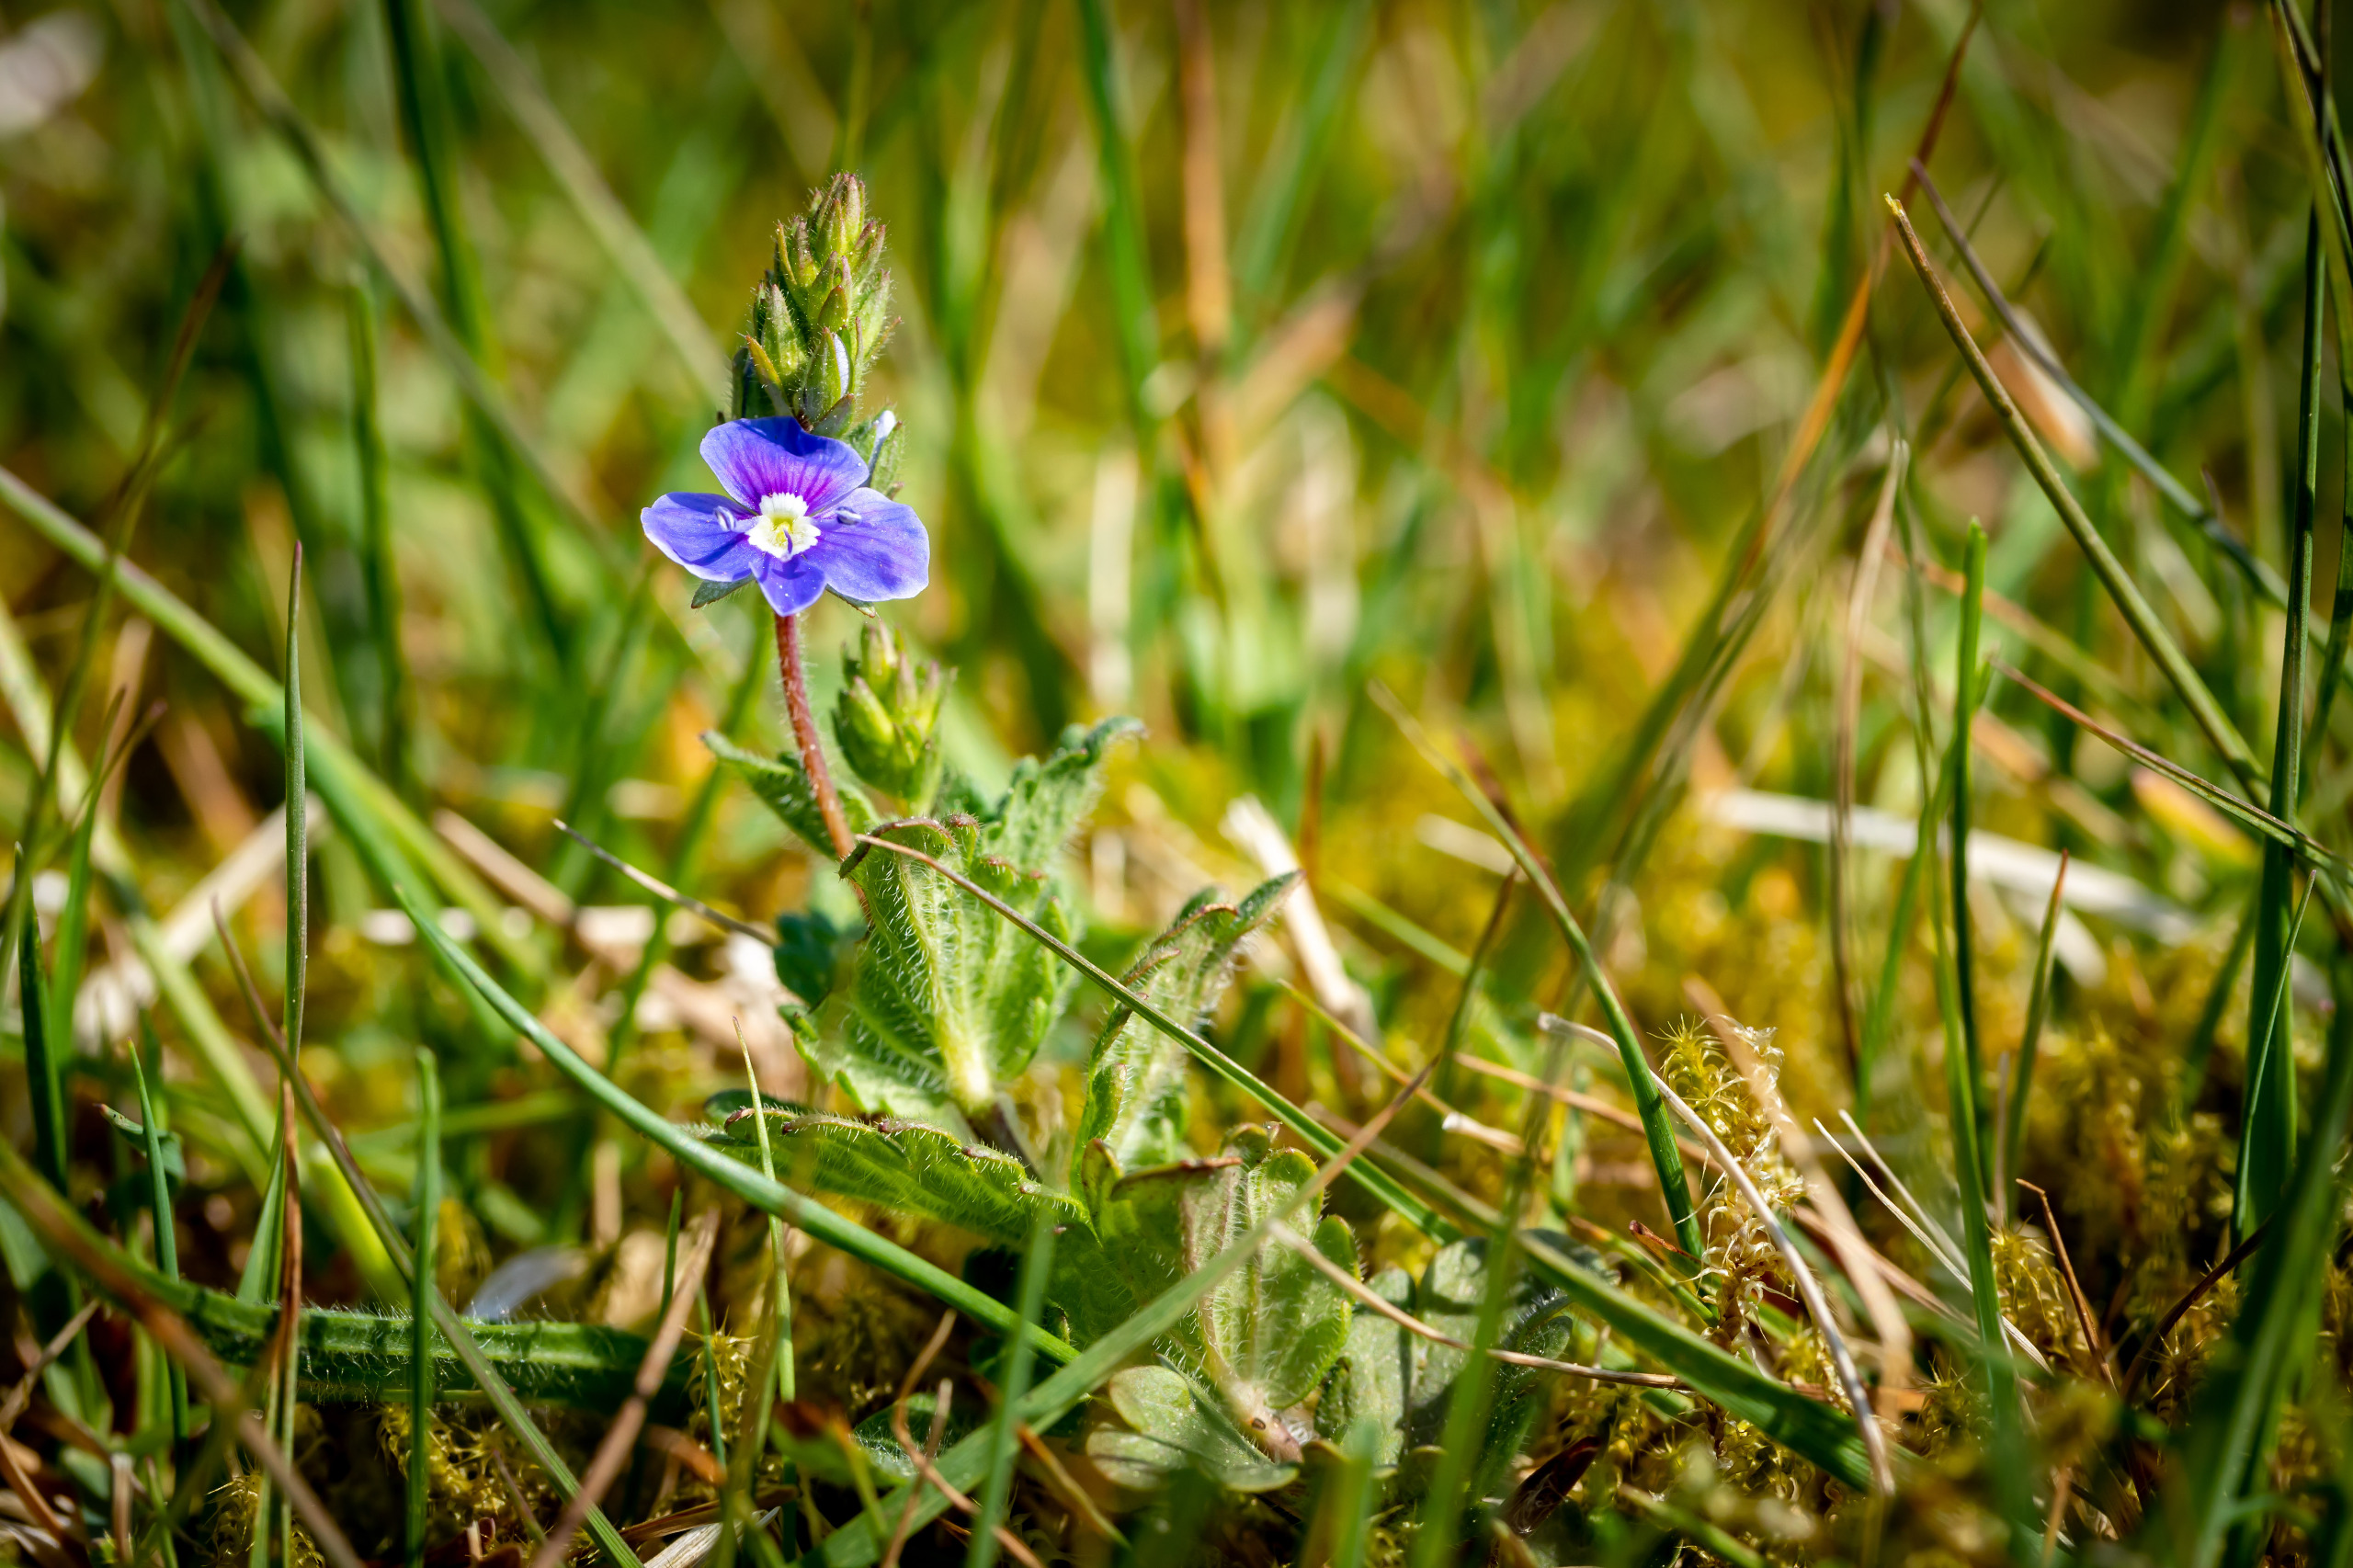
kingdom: Plantae
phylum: Tracheophyta
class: Magnoliopsida
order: Lamiales
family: Plantaginaceae
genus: Veronica
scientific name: Veronica chamaedrys
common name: Tveskægget ærenpris
